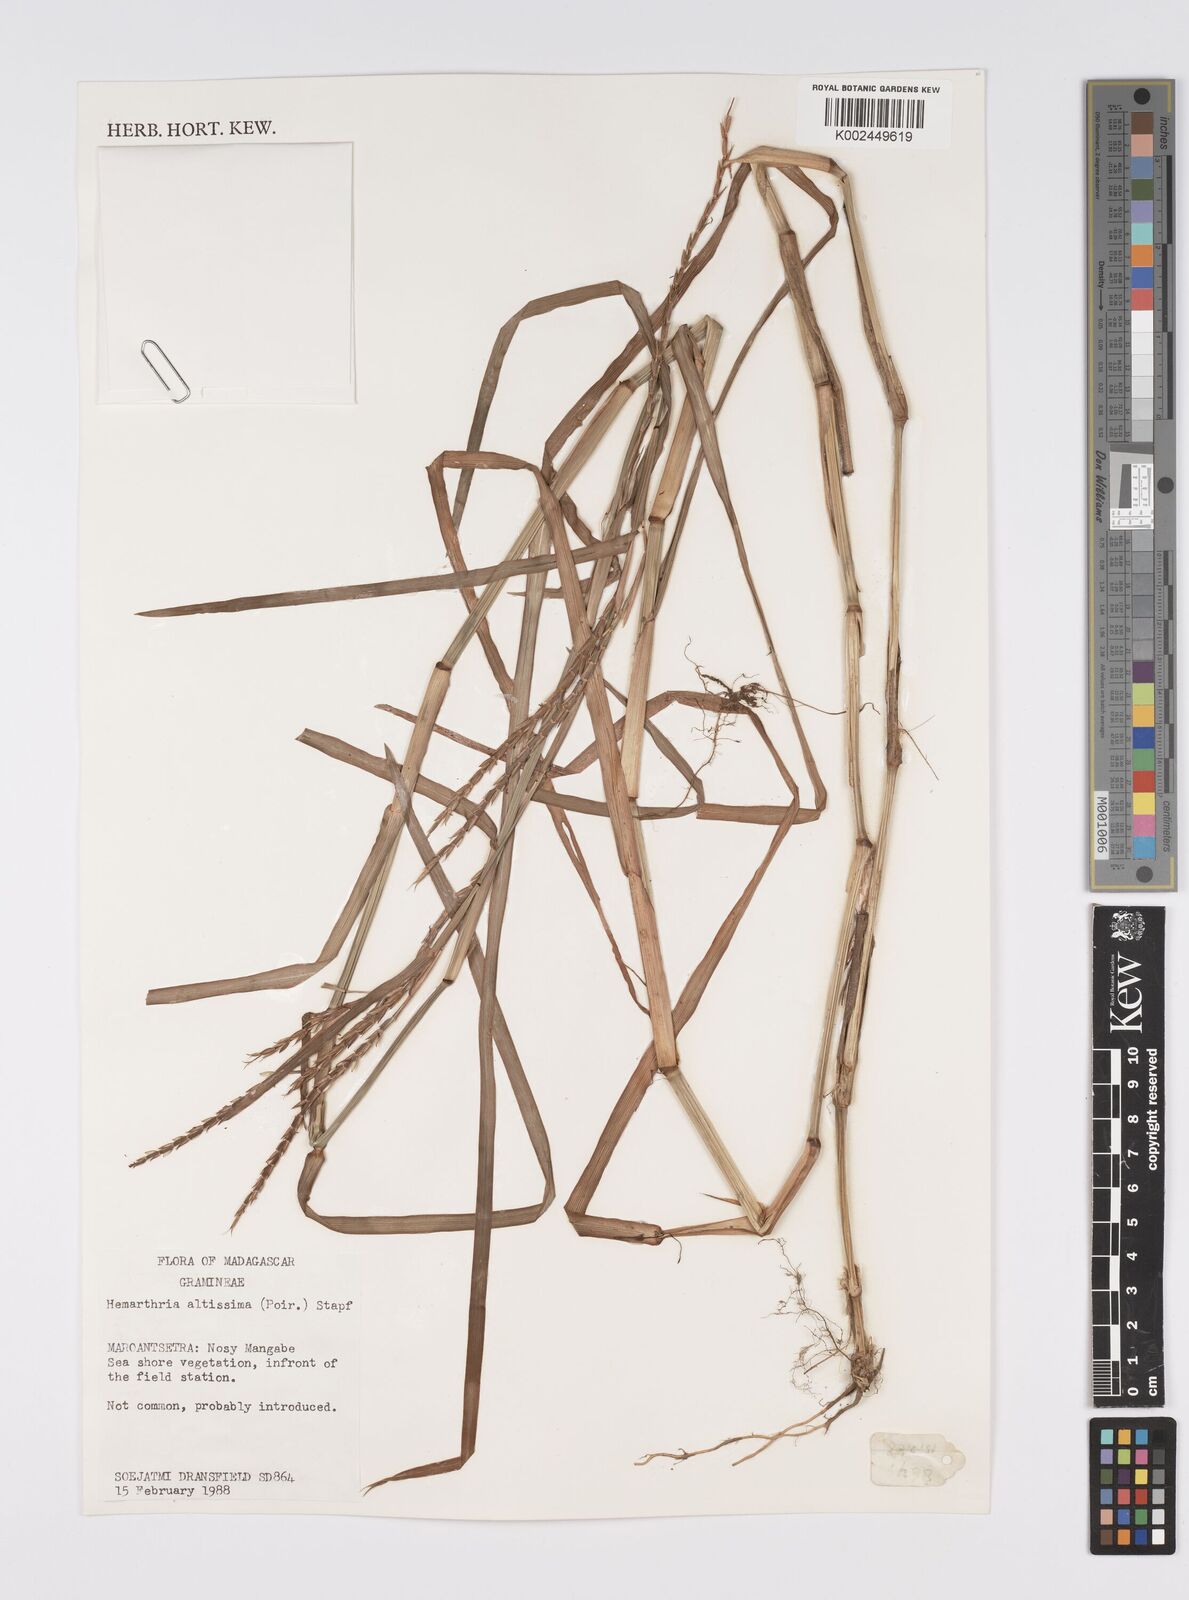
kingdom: Plantae
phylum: Tracheophyta
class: Liliopsida
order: Poales
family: Poaceae
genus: Hemarthria
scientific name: Hemarthria altissima
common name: African jointgrass
